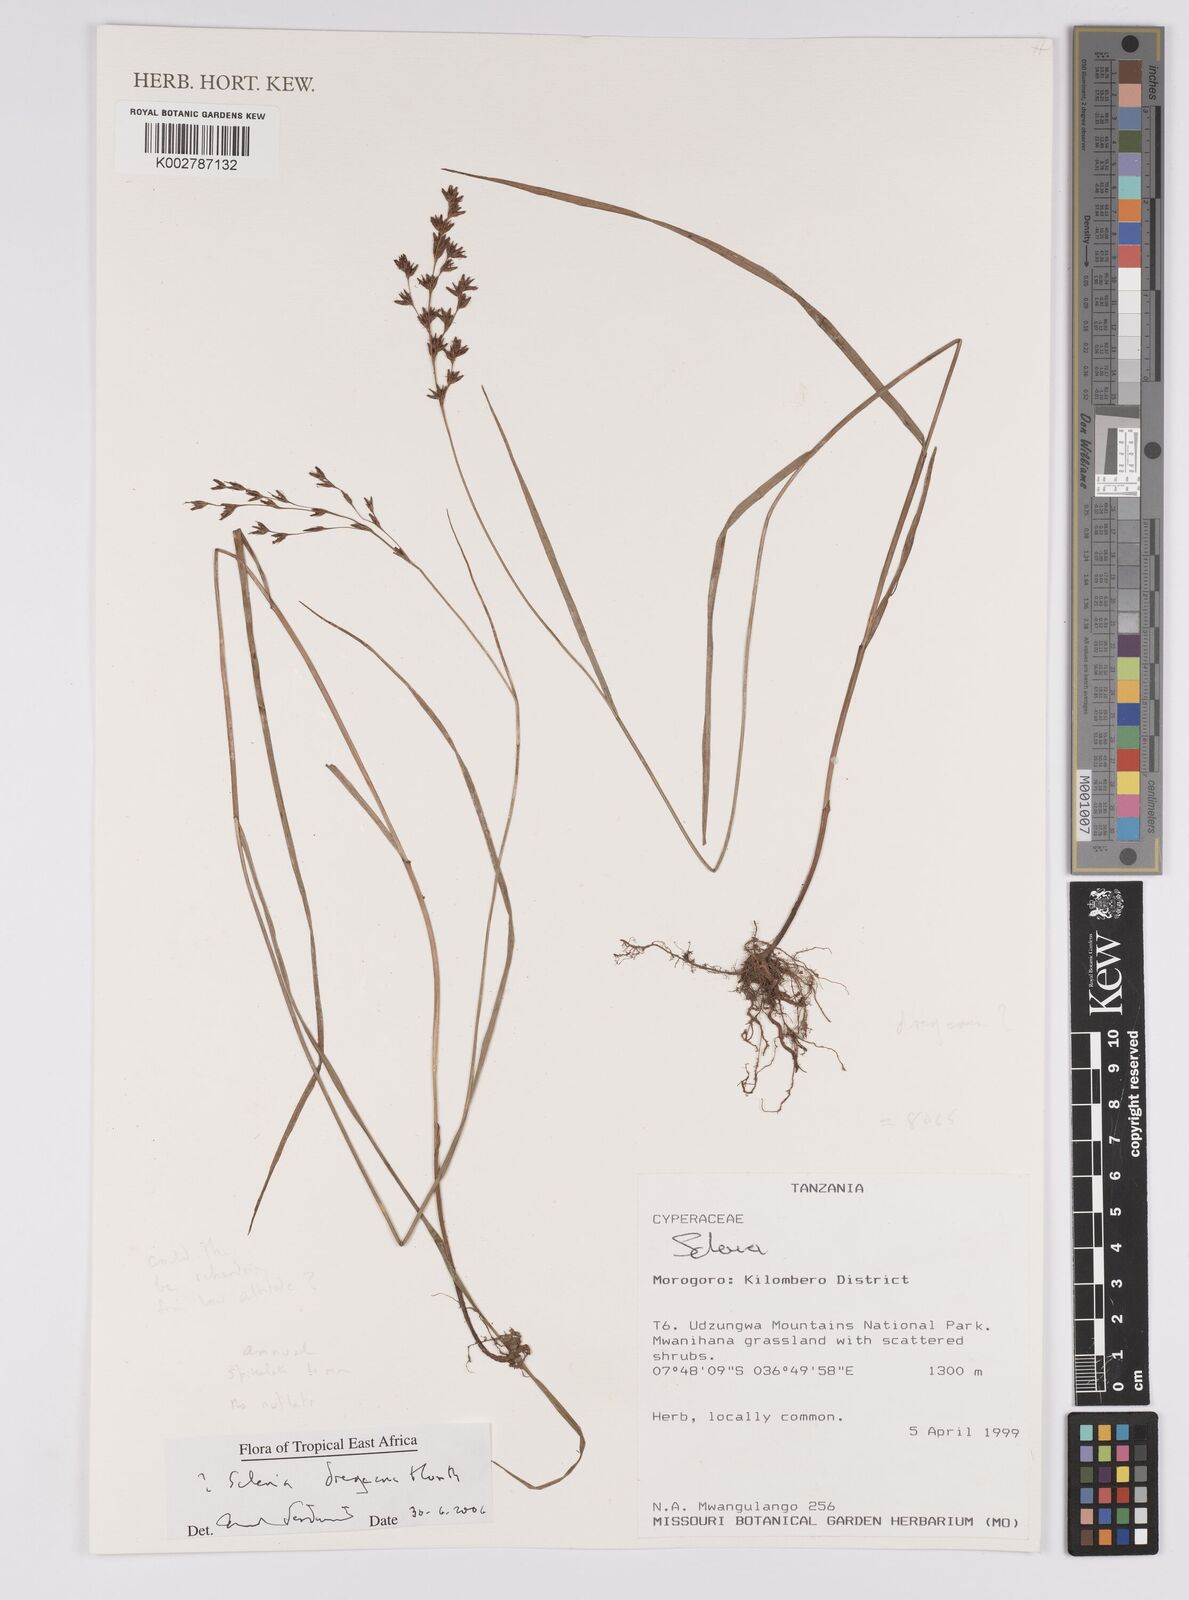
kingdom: Plantae
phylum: Tracheophyta
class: Liliopsida
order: Poales
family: Cyperaceae
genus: Scleria
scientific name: Scleria dregeana
